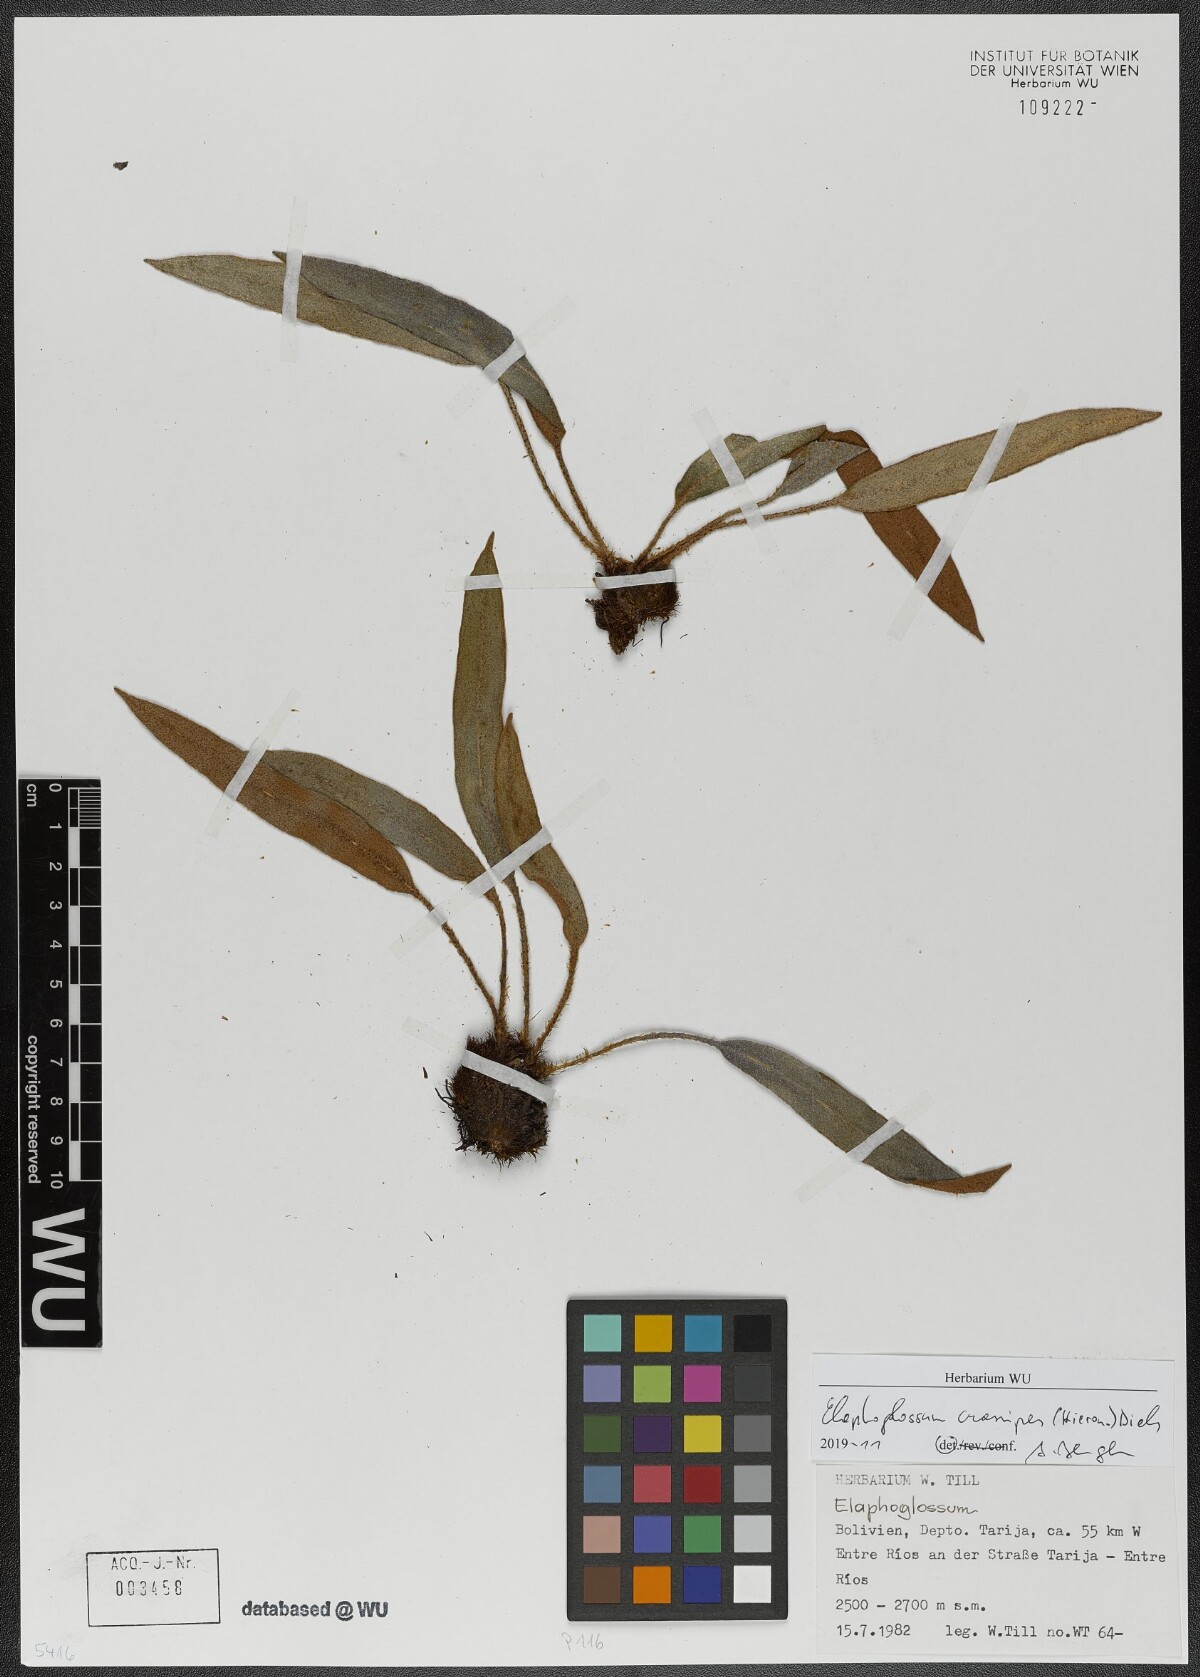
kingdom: Plantae
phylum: Tracheophyta
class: Polypodiopsida
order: Polypodiales
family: Dryopteridaceae
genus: Elaphoglossum
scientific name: Elaphoglossum crassipes
